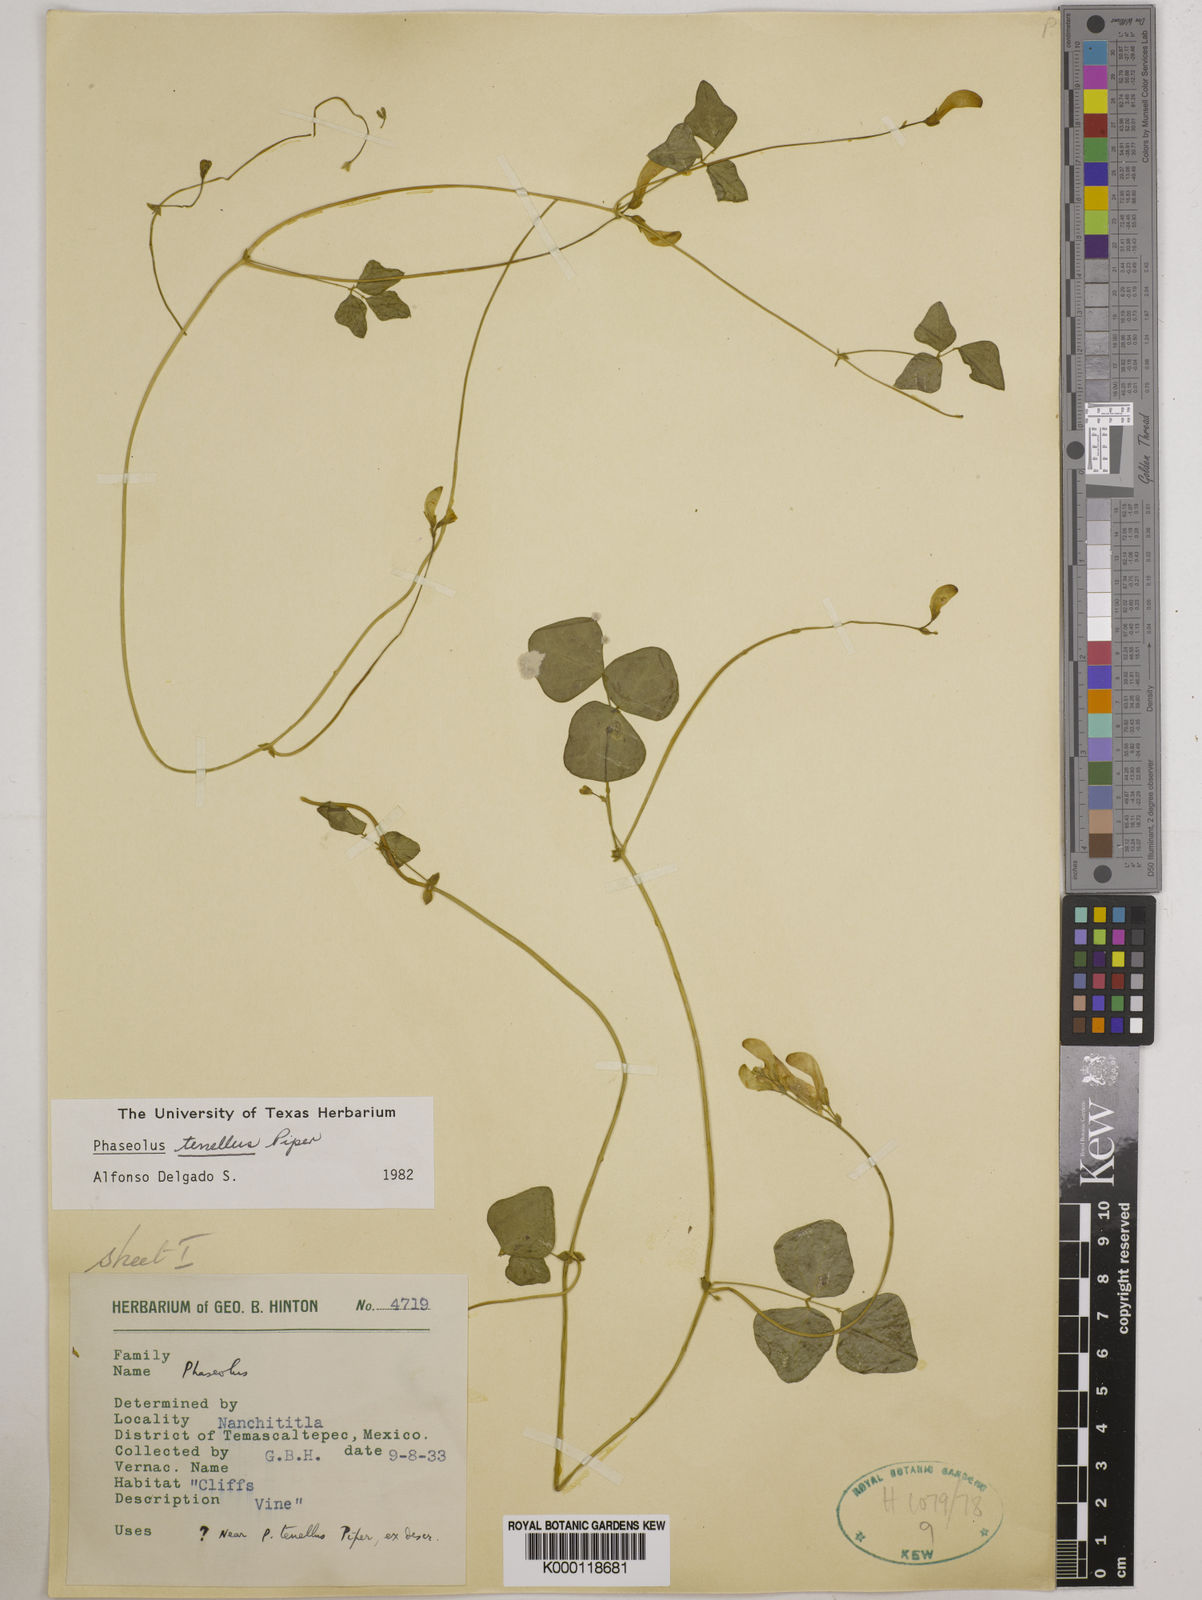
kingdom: Plantae
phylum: Tracheophyta
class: Magnoliopsida
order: Fabales
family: Fabaceae
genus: Phaseolus
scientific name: Phaseolus tenellus
